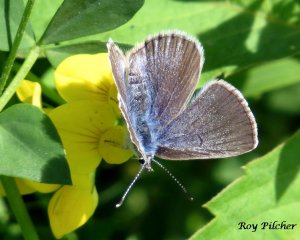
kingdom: Animalia
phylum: Arthropoda
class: Insecta
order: Lepidoptera
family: Lycaenidae
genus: Glaucopsyche
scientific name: Glaucopsyche lygdamus
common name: Silvery Blue
